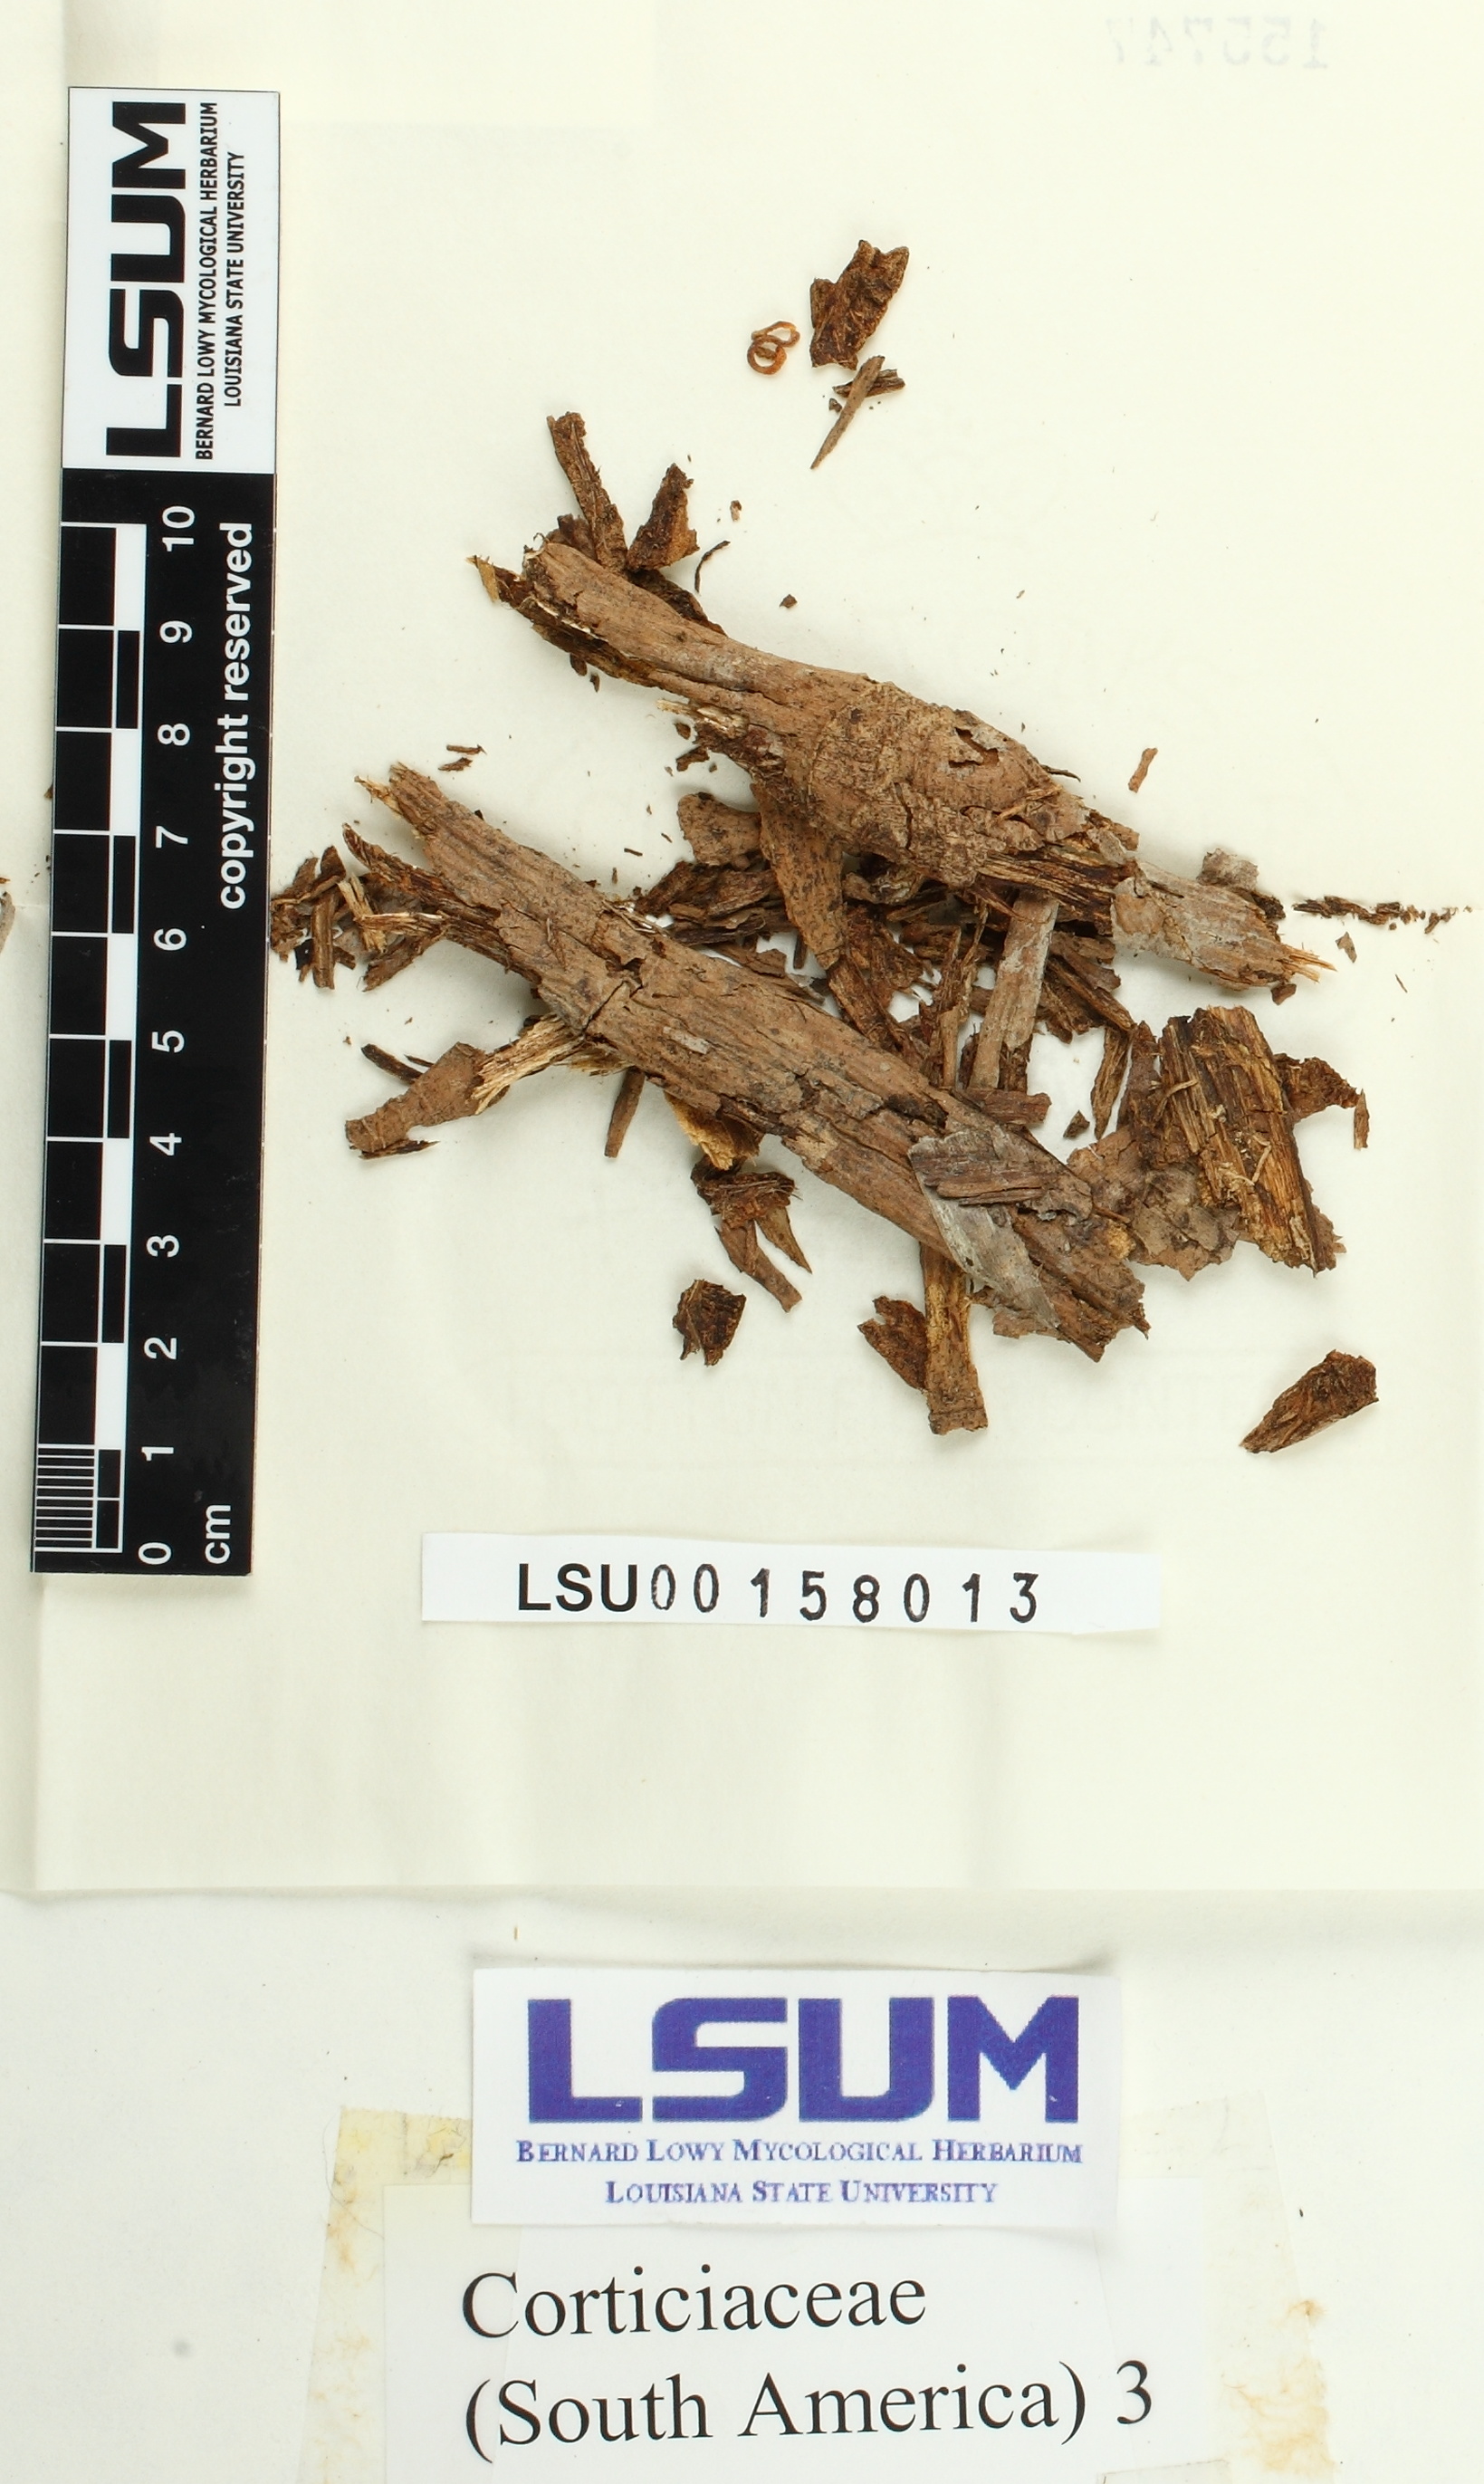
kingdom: Fungi
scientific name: Fungi
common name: Fungi
